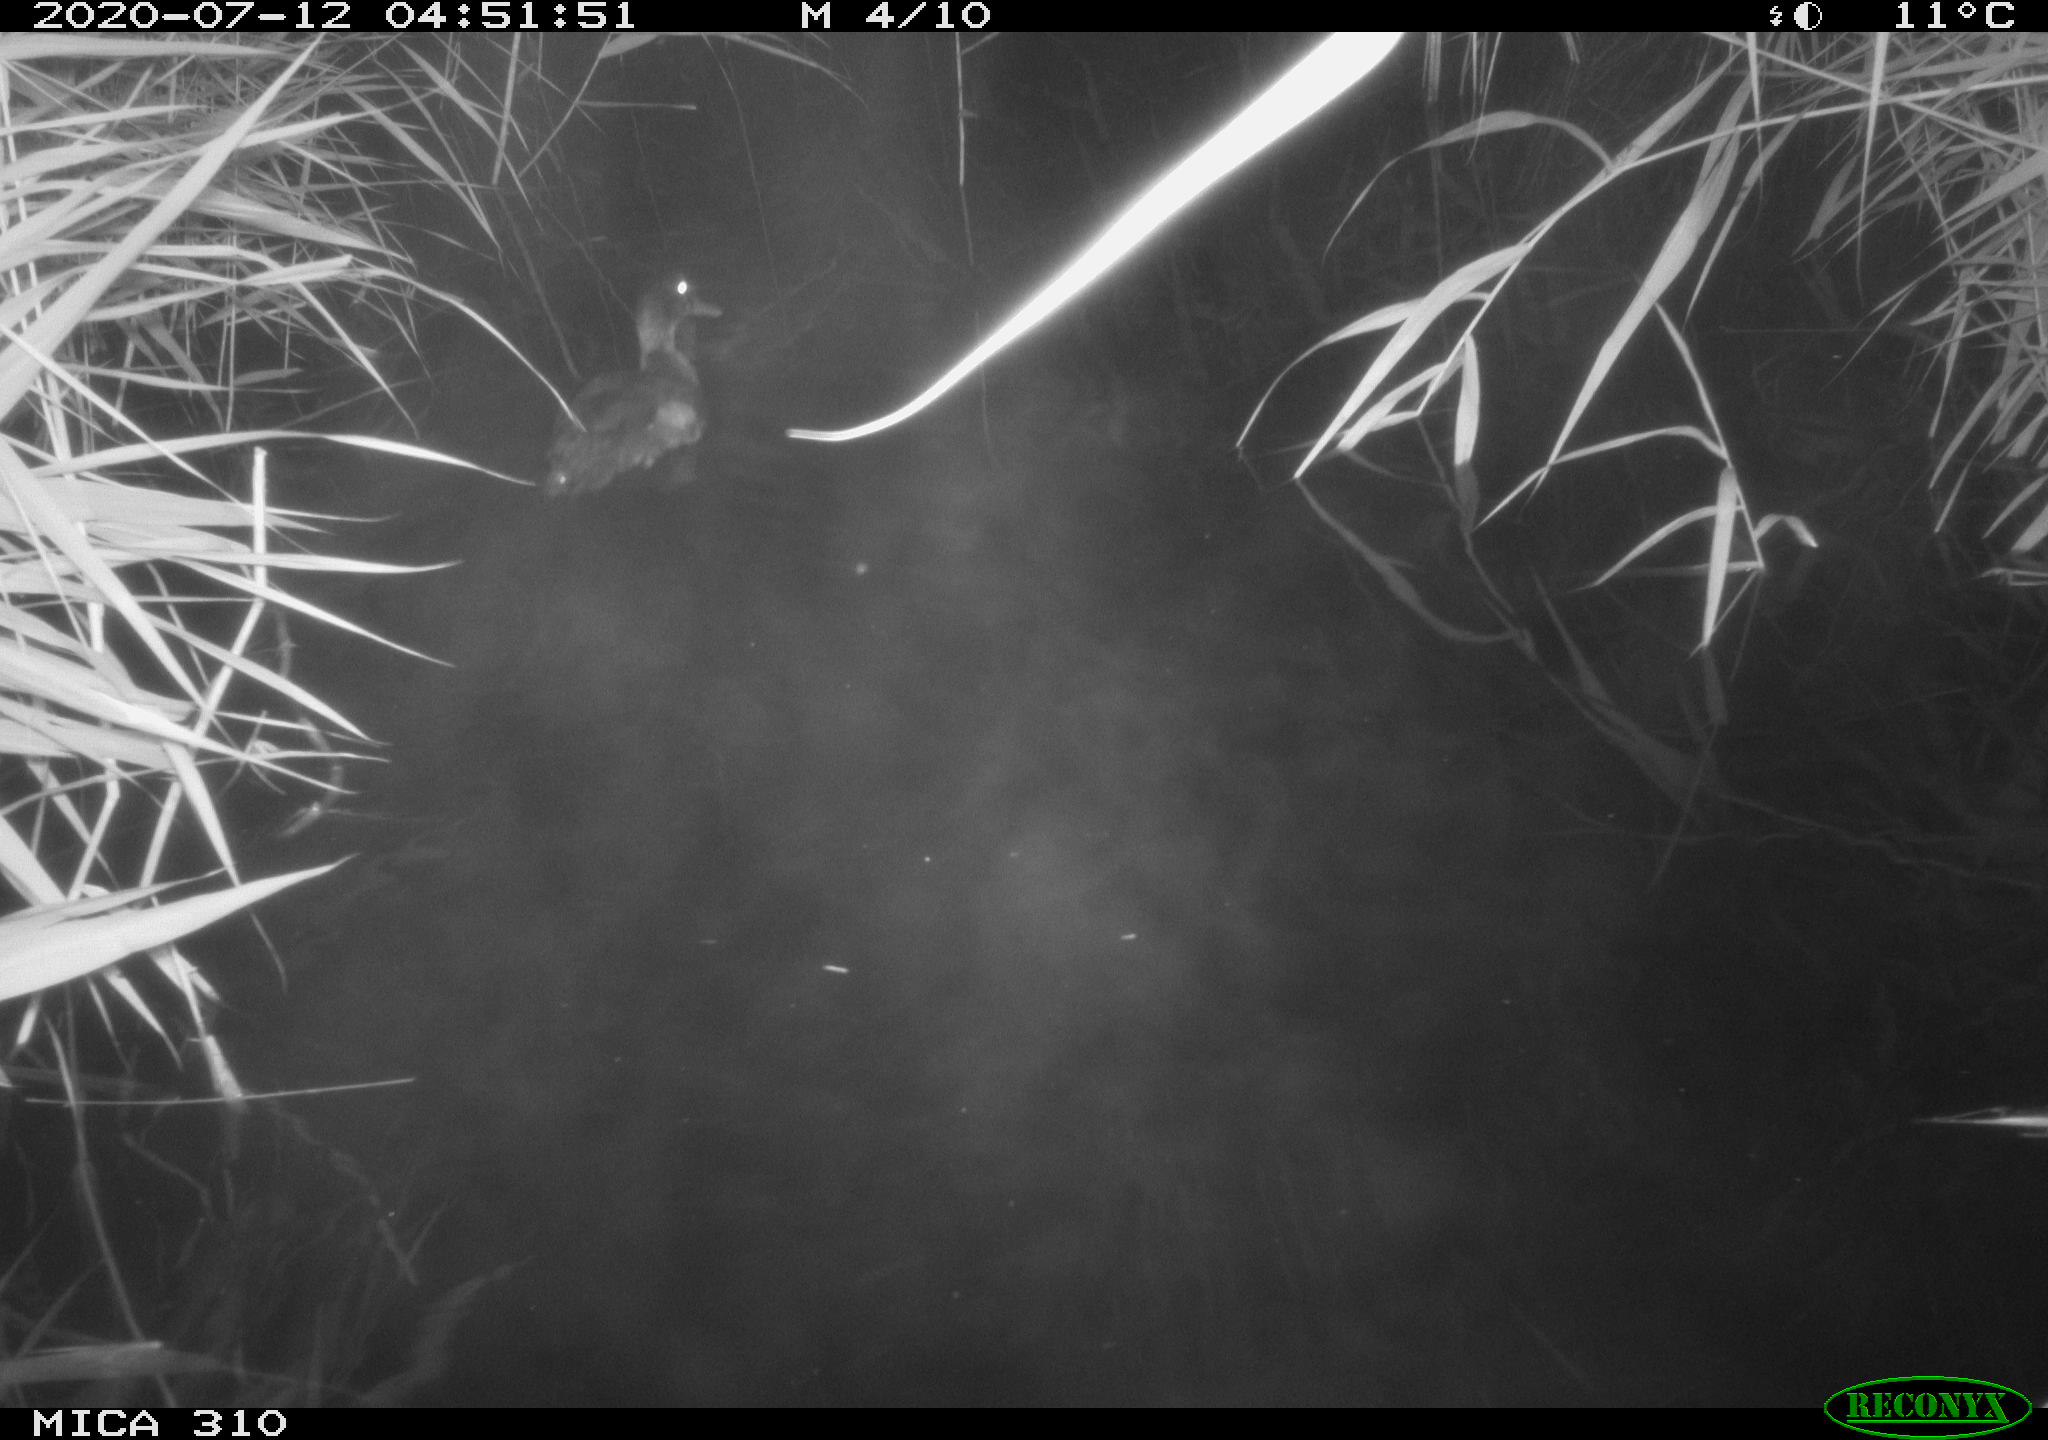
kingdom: Animalia
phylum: Chordata
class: Aves
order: Anseriformes
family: Anatidae
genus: Anas
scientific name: Anas platyrhynchos
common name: Mallard
